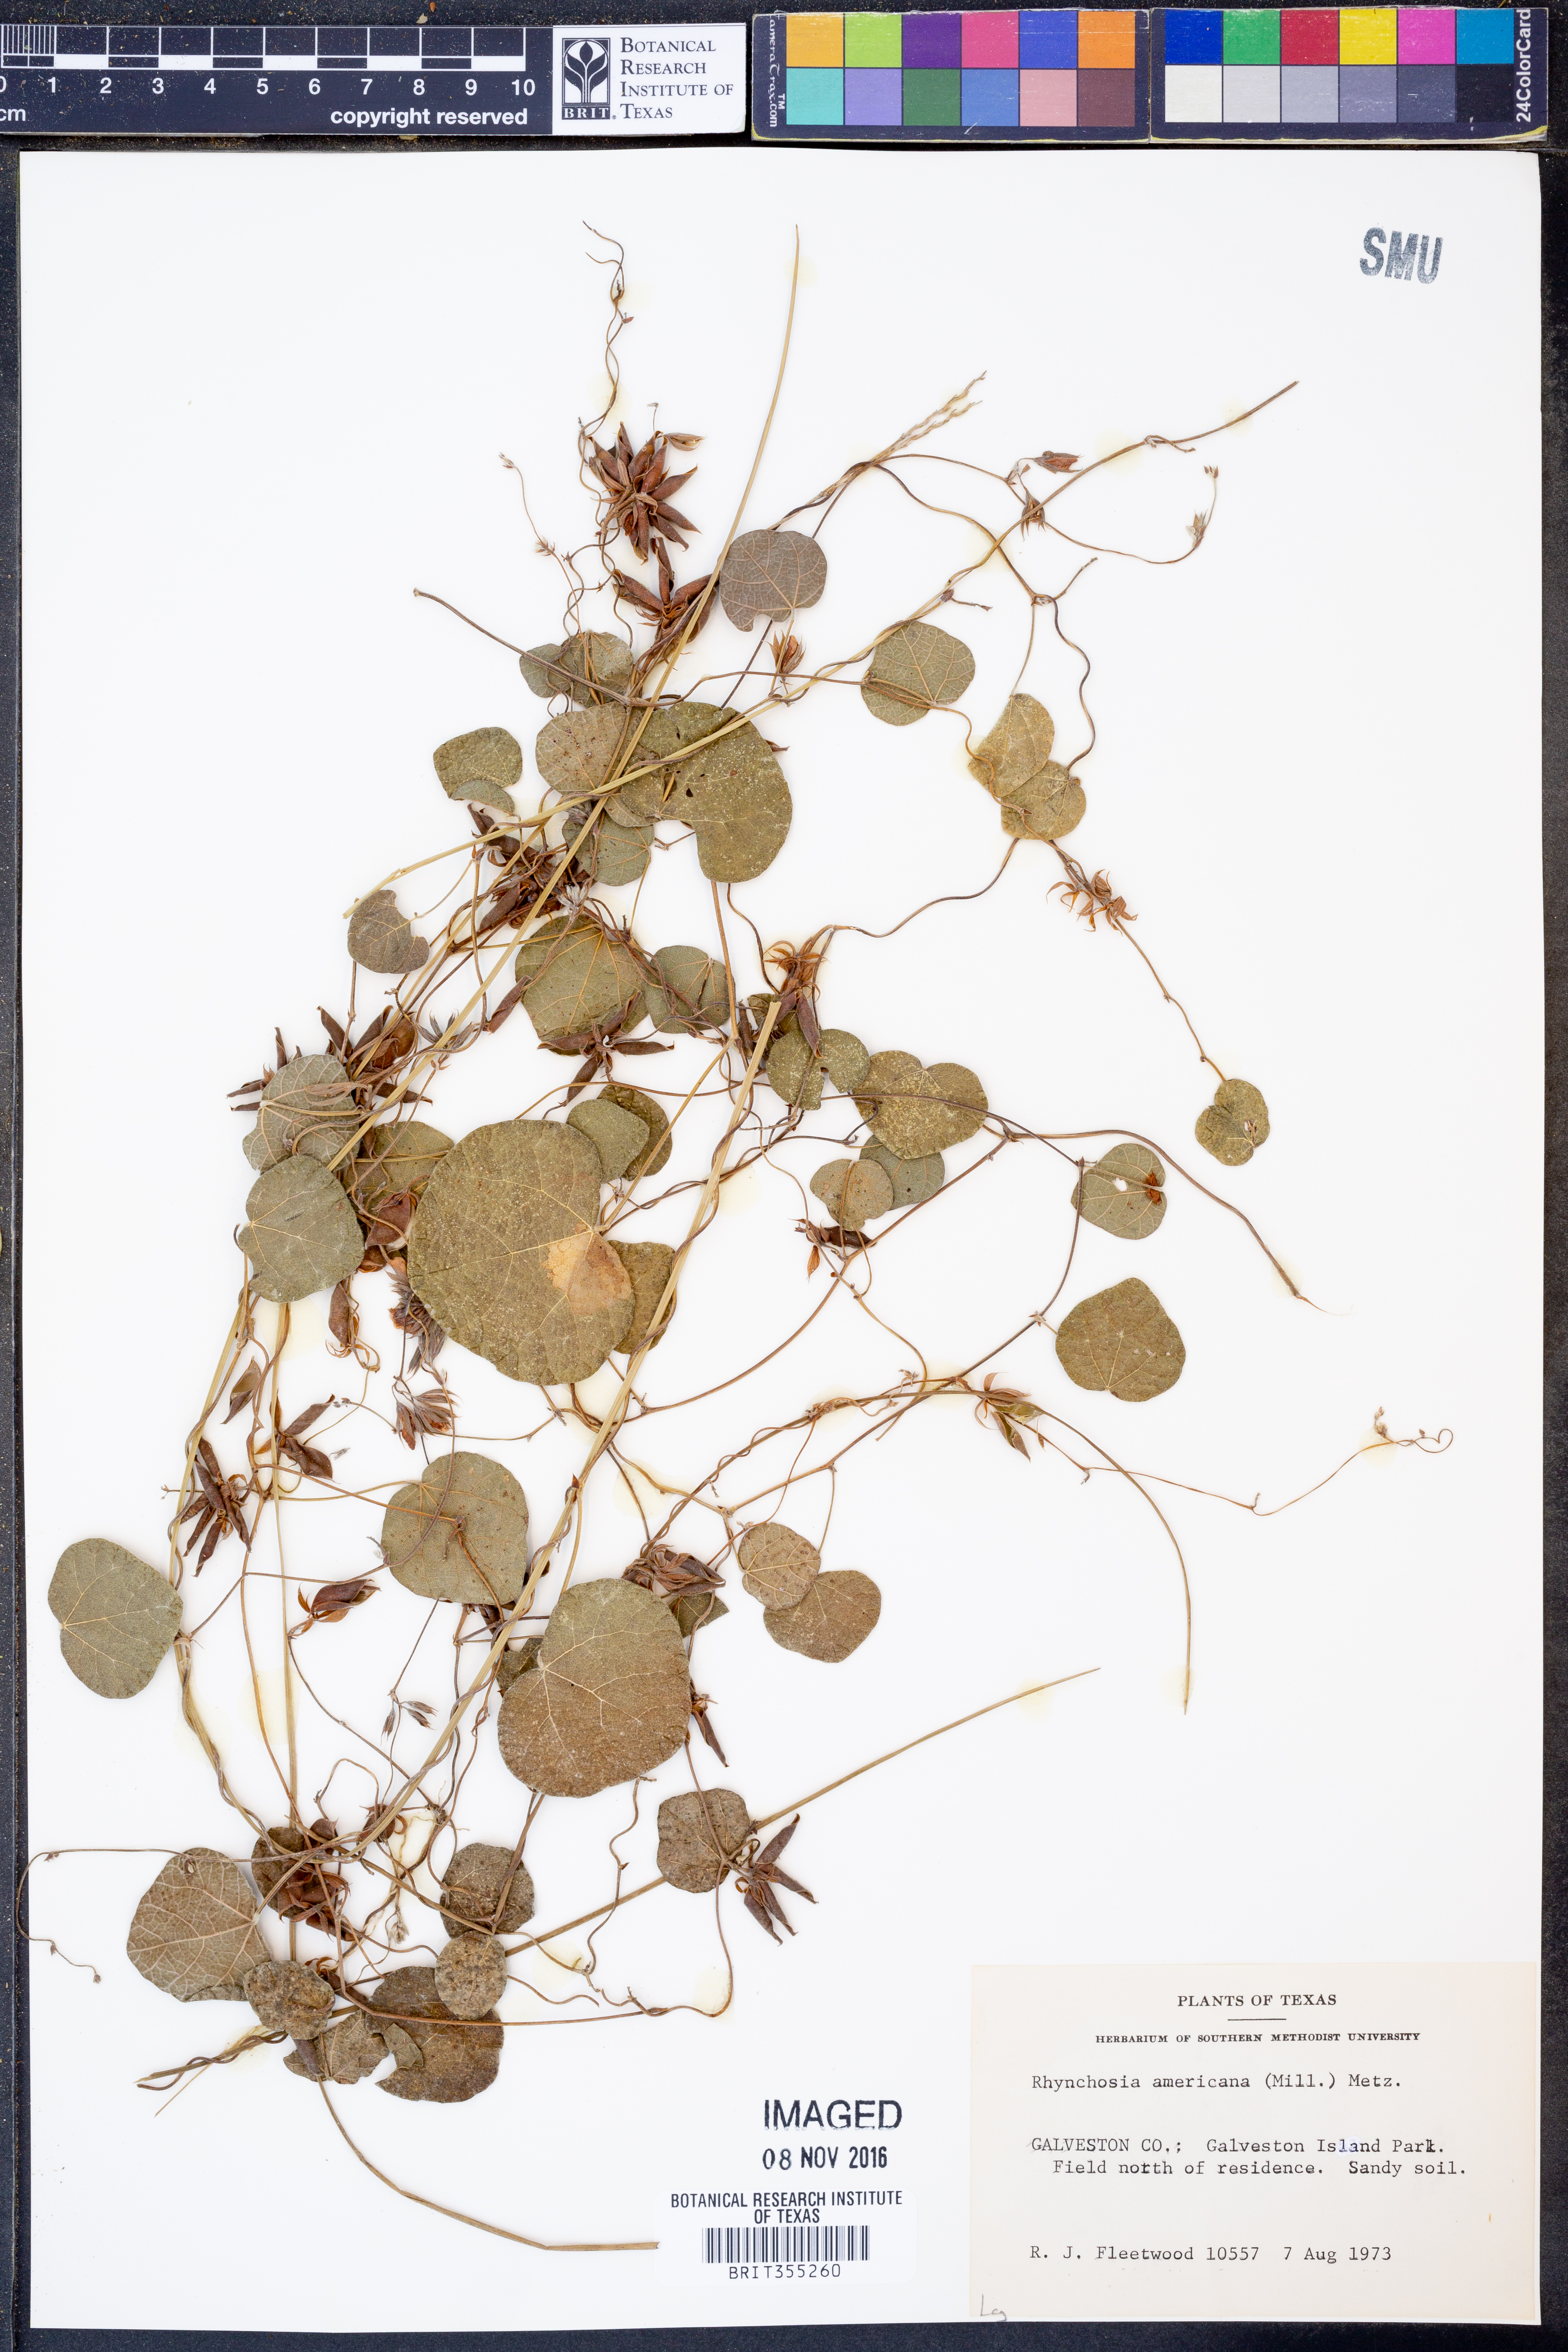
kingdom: Plantae
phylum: Tracheophyta
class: Magnoliopsida
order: Fabales
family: Fabaceae
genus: Rhynchosia
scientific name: Rhynchosia americana
